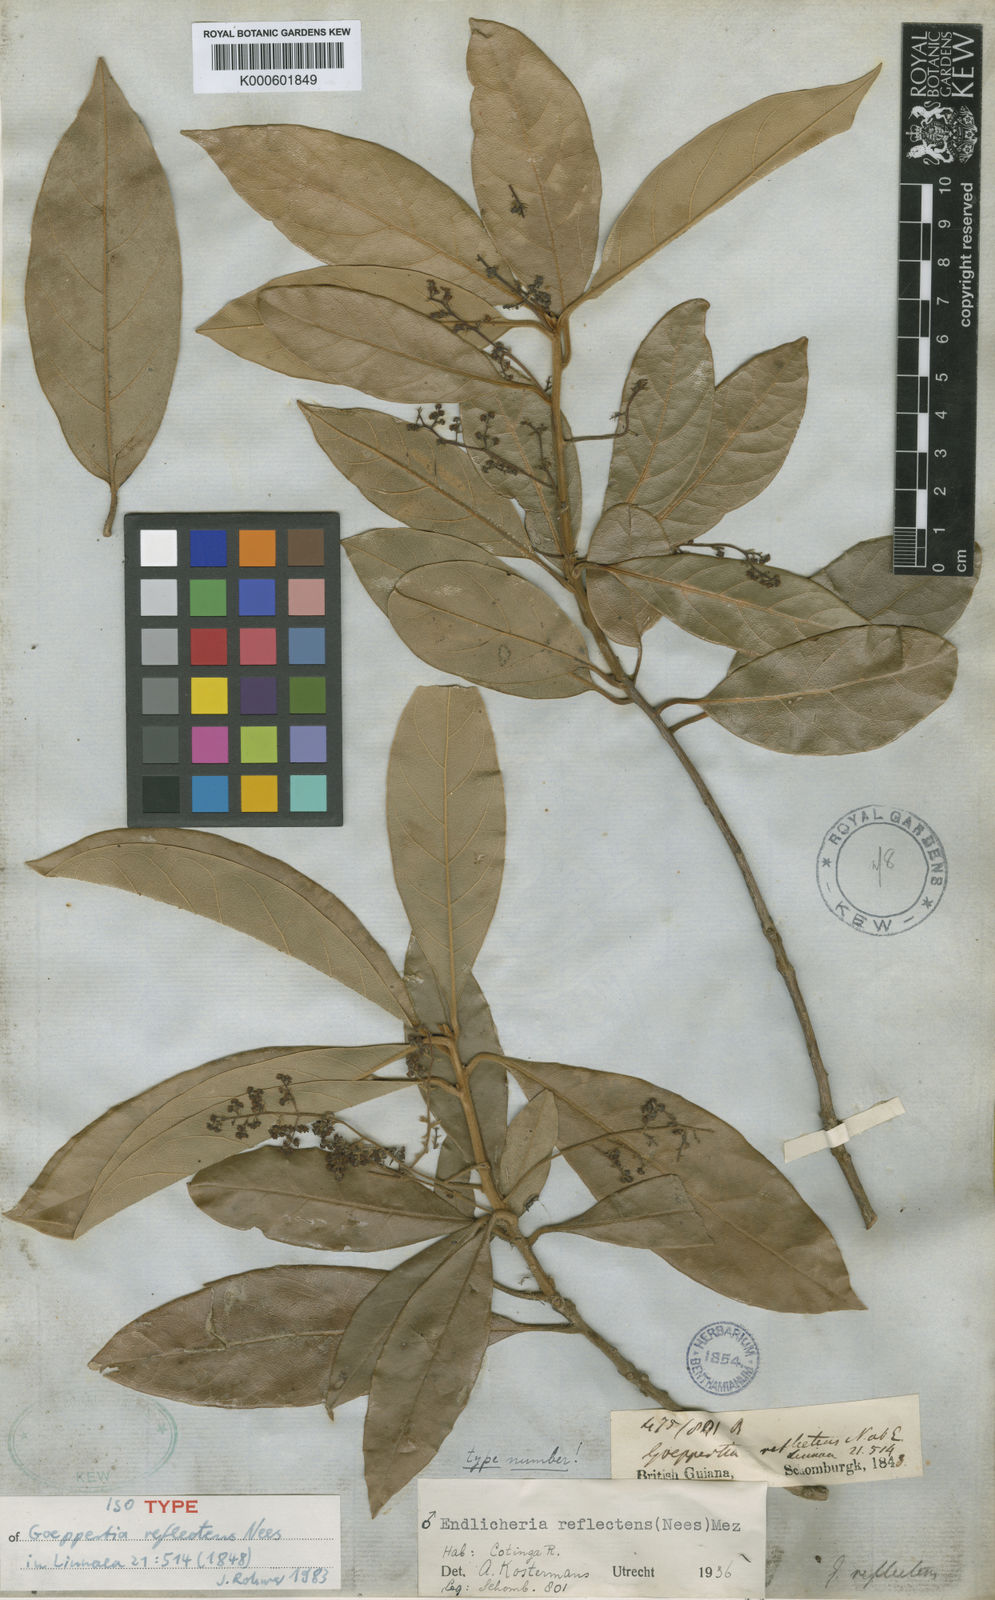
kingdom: Plantae
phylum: Tracheophyta
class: Magnoliopsida
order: Laurales
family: Lauraceae
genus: Endlicheria
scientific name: Endlicheria reflectens
